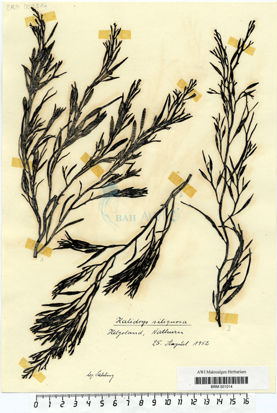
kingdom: Chromista
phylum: Ochrophyta
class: Phaeophyceae
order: Fucales
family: Sargassaceae
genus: Halidrys
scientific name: Halidrys siliquosa
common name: Sea oak
